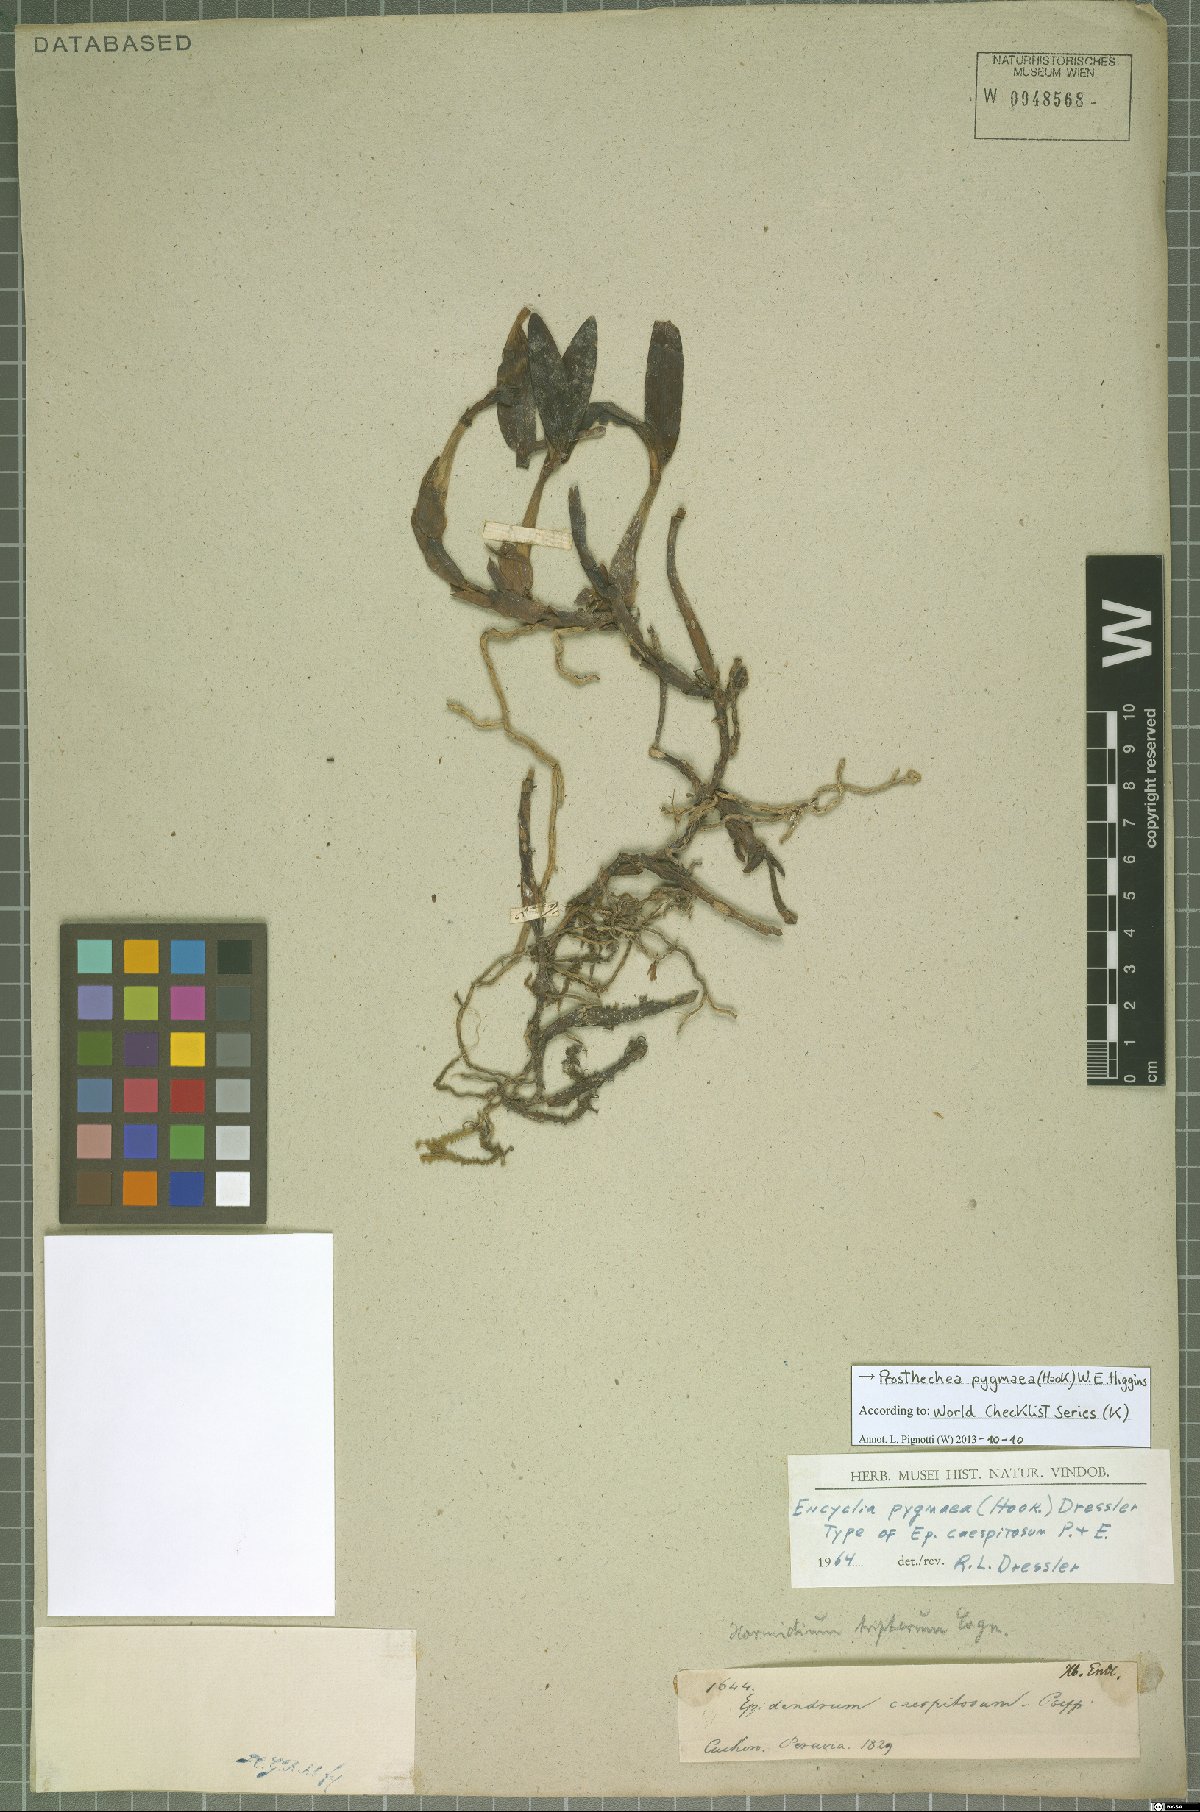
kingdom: Plantae
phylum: Tracheophyta
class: Liliopsida
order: Asparagales
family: Orchidaceae
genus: Prosthechea
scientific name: Prosthechea pygmaea
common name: Dwarf butterfly orchid
